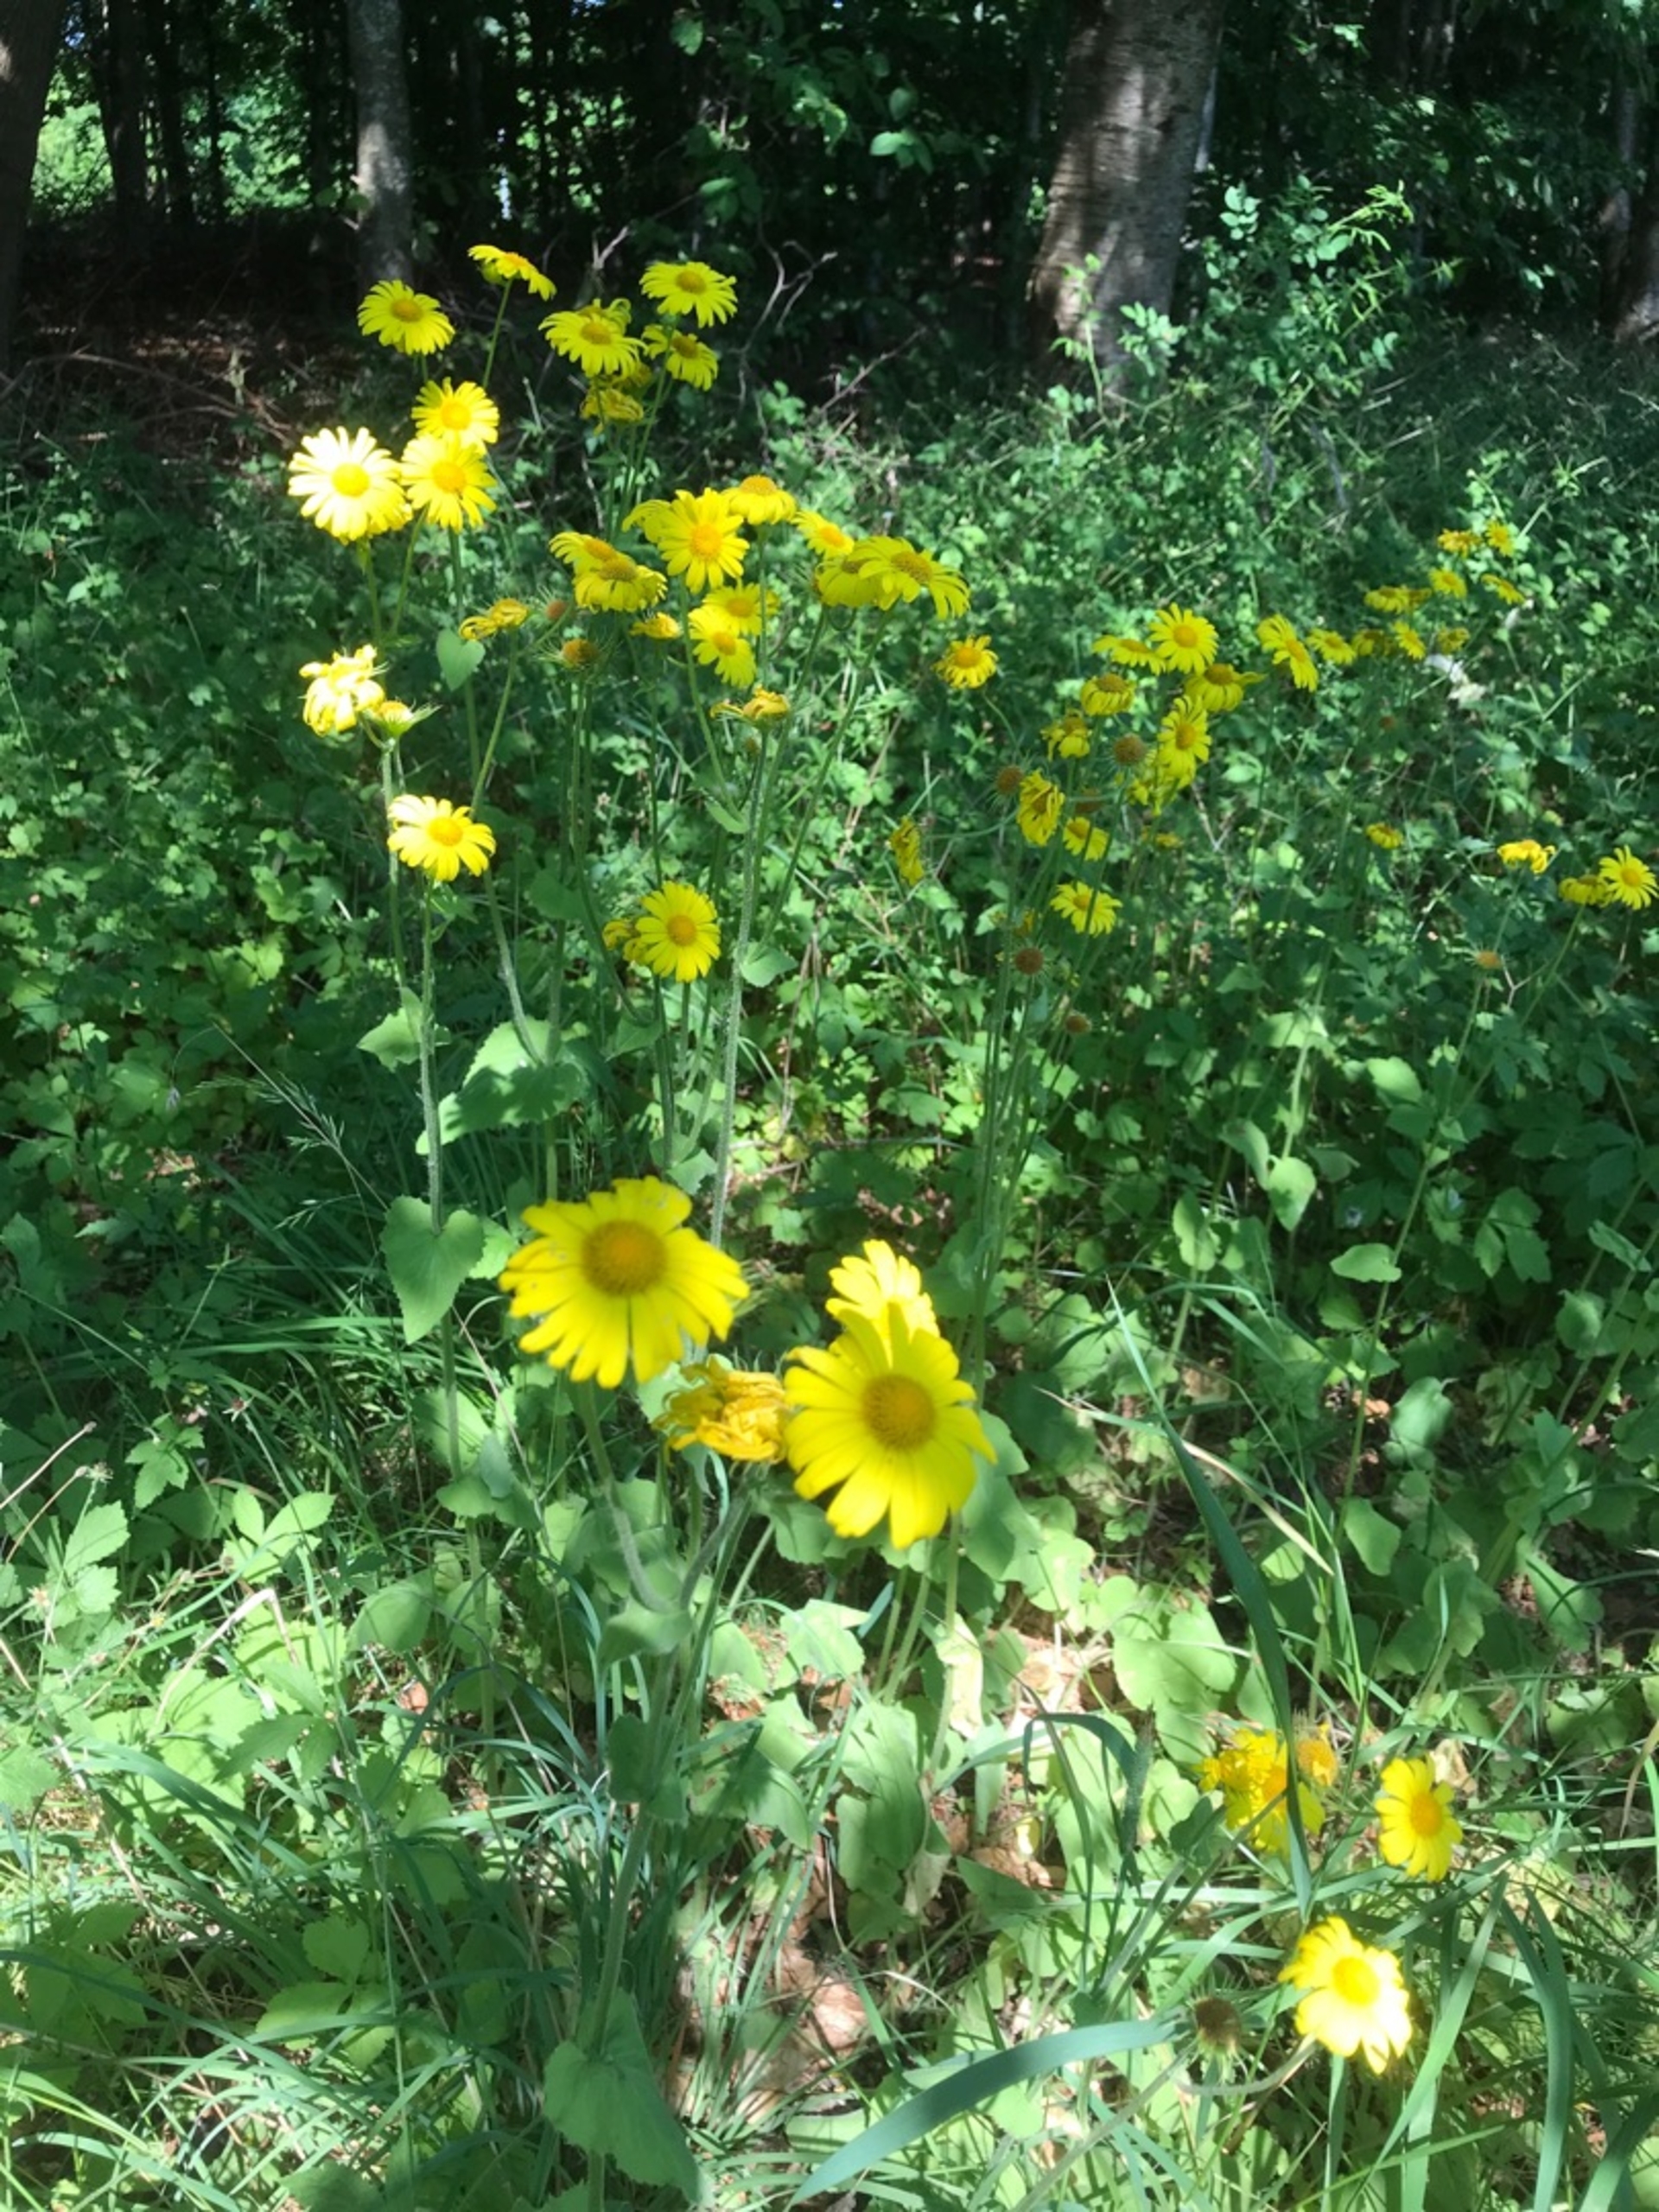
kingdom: Plantae
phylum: Tracheophyta
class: Magnoliopsida
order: Asterales
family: Asteraceae
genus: Doronicum
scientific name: Doronicum pardalianches
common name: Hjertebladet gemserod
